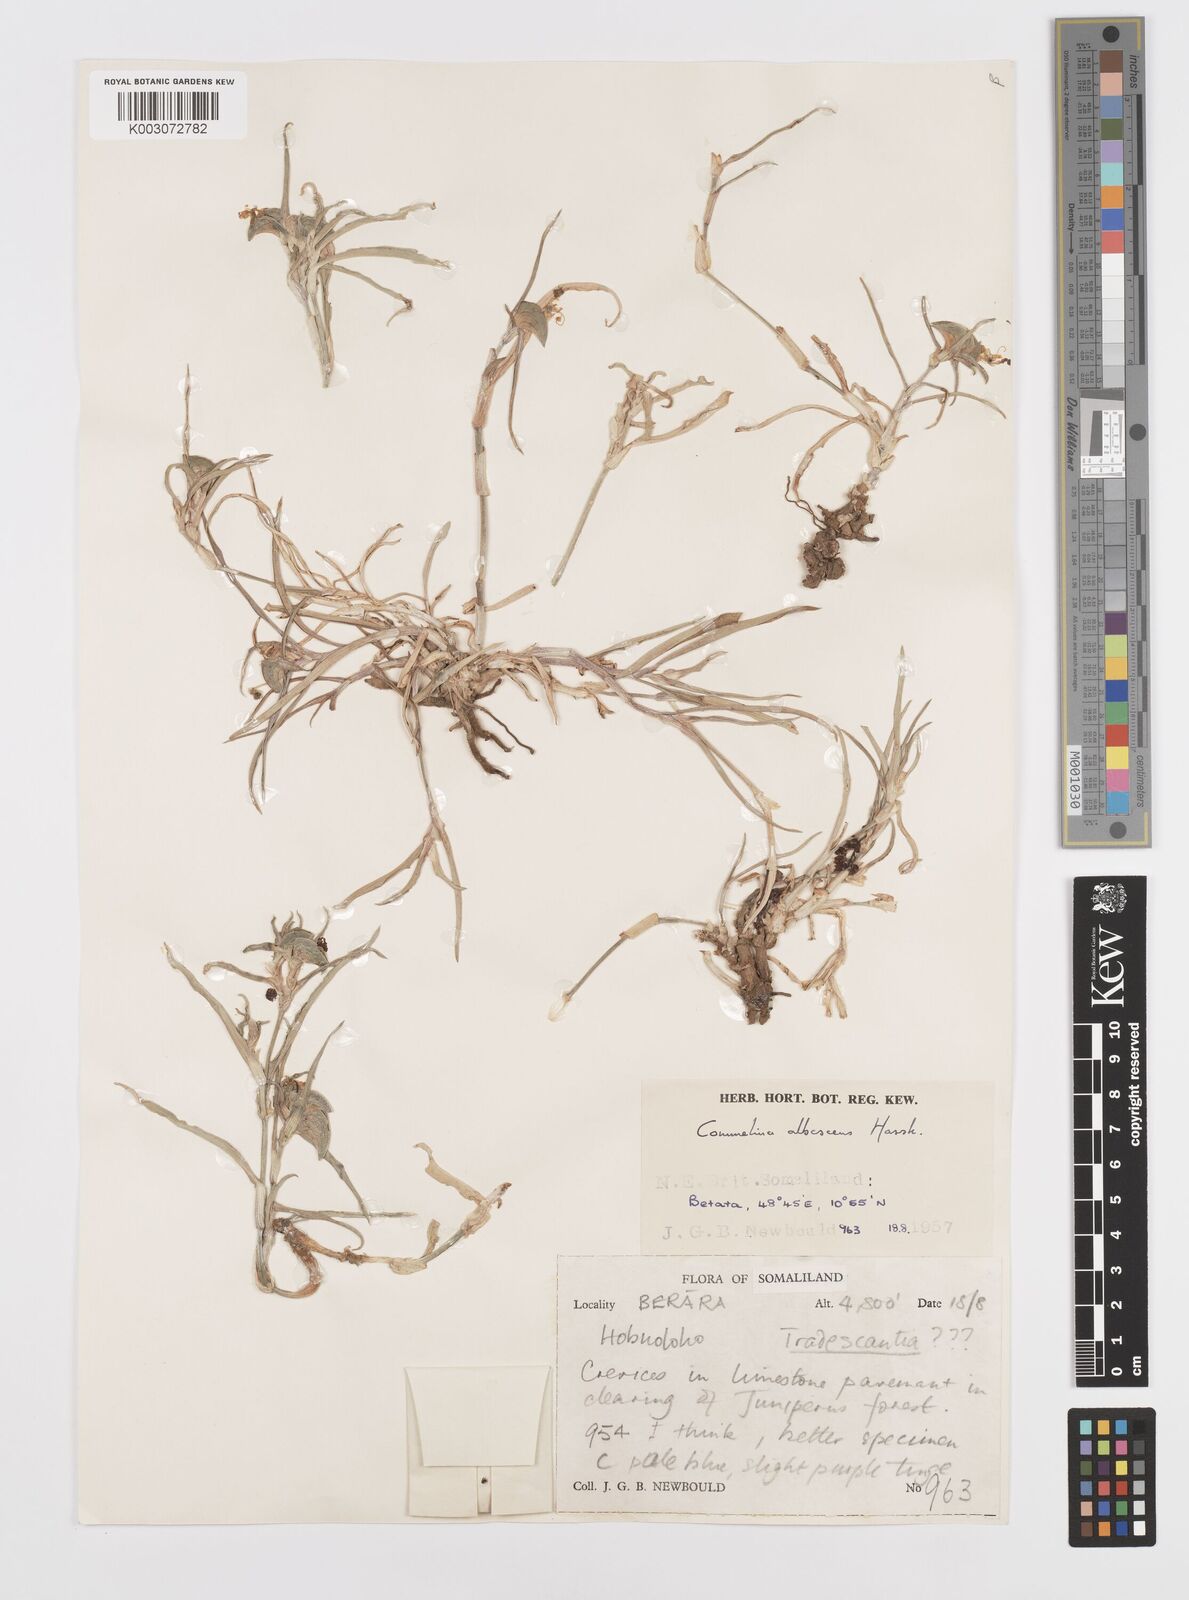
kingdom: Plantae
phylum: Tracheophyta
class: Liliopsida
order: Commelinales
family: Commelinaceae
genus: Commelina
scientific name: Commelina albescens
